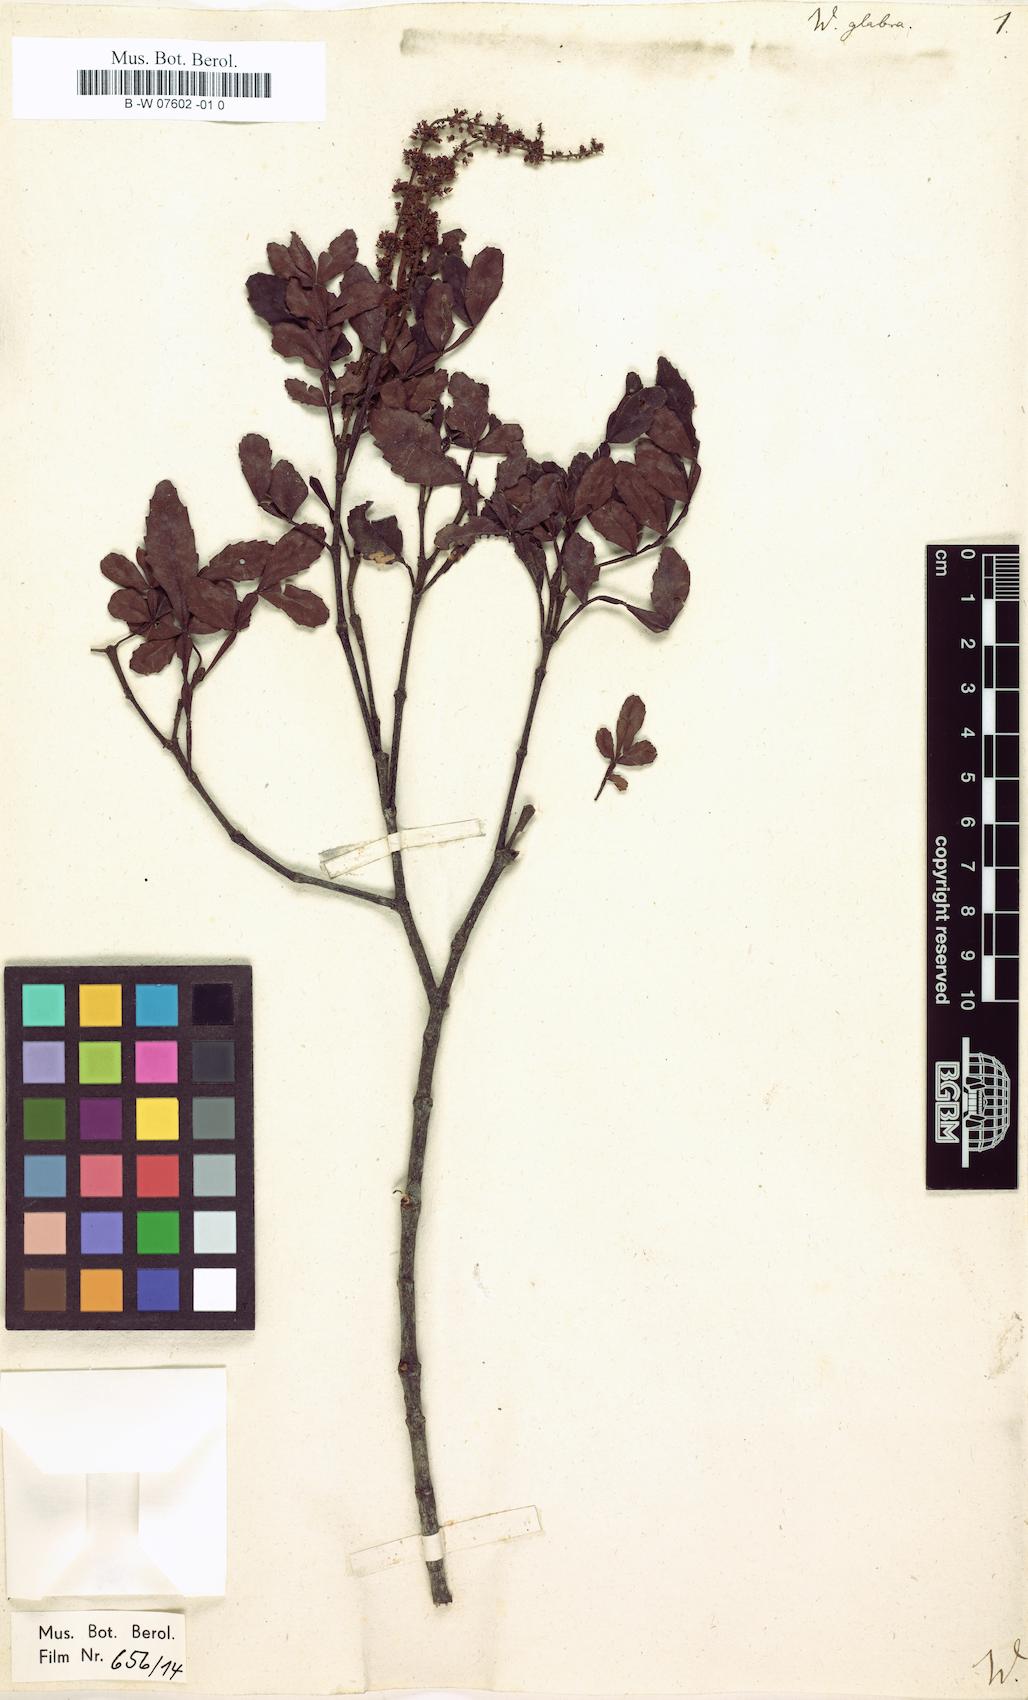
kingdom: Plantae
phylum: Tracheophyta
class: Magnoliopsida
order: Oxalidales
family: Cunoniaceae
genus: Weinmannia
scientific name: Weinmannia pinnata
